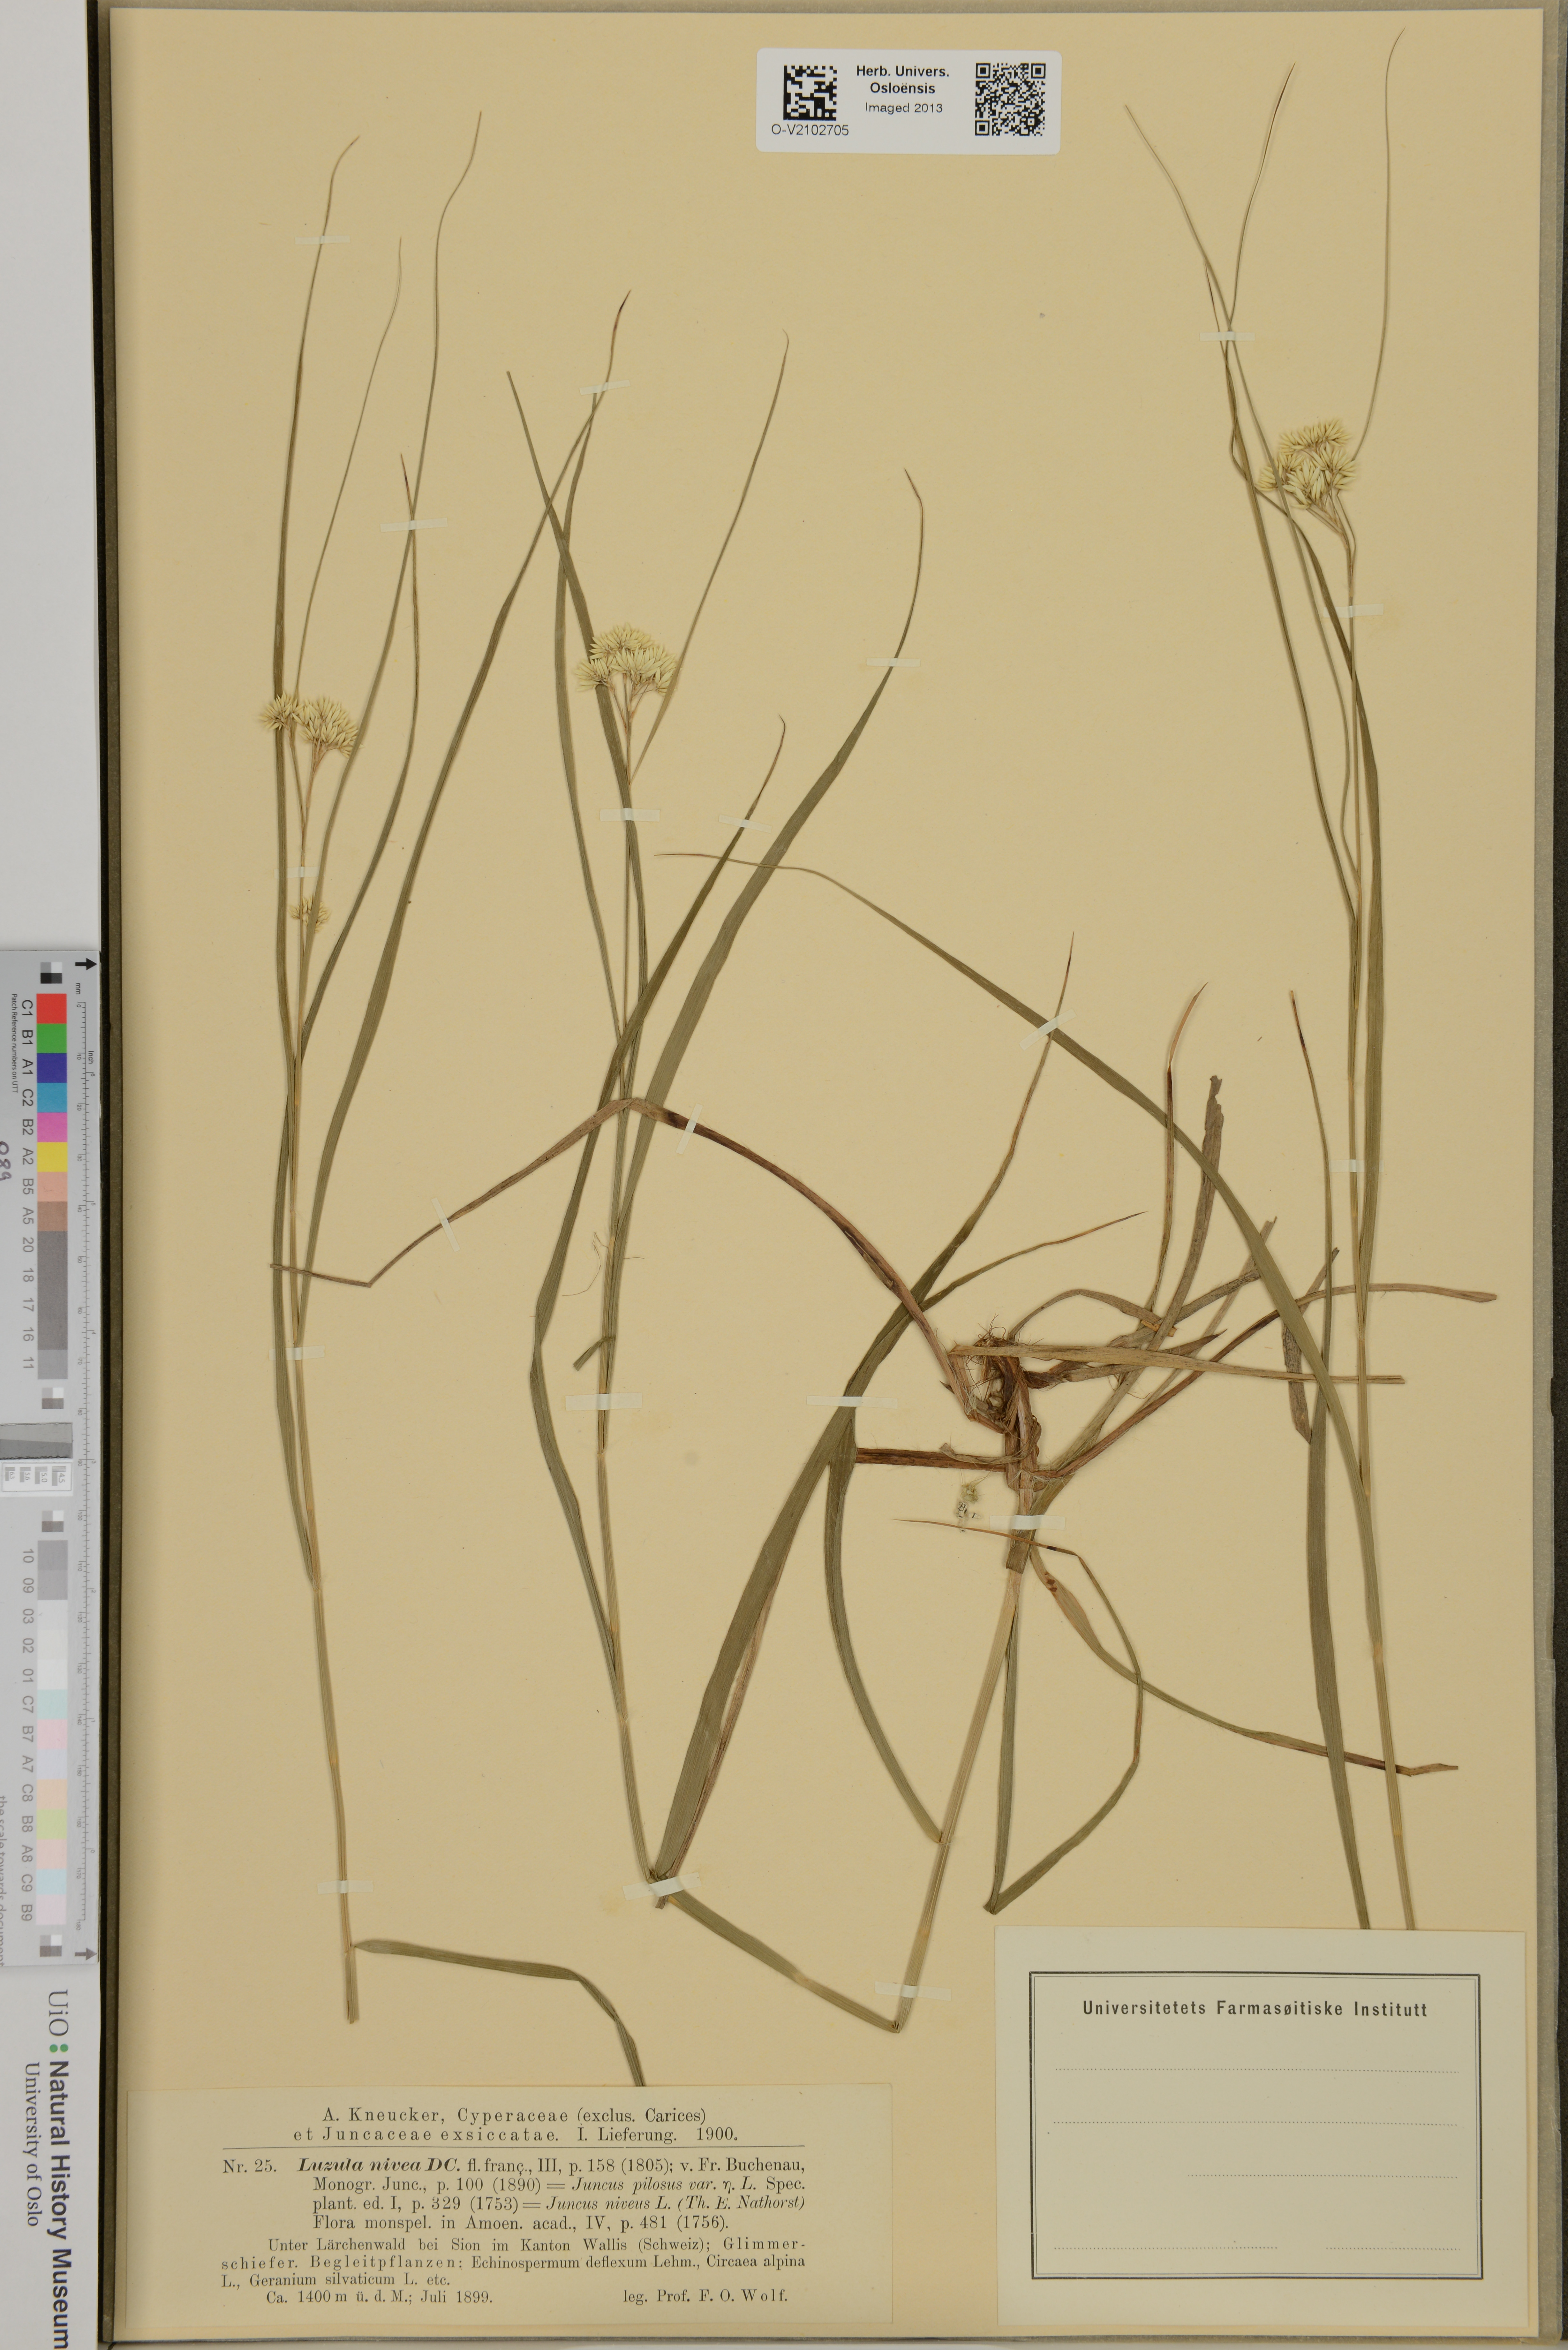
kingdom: Plantae
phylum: Tracheophyta
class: Liliopsida
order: Poales
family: Juncaceae
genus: Luzula
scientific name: Luzula nivea
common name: Snow-white wood-rush
